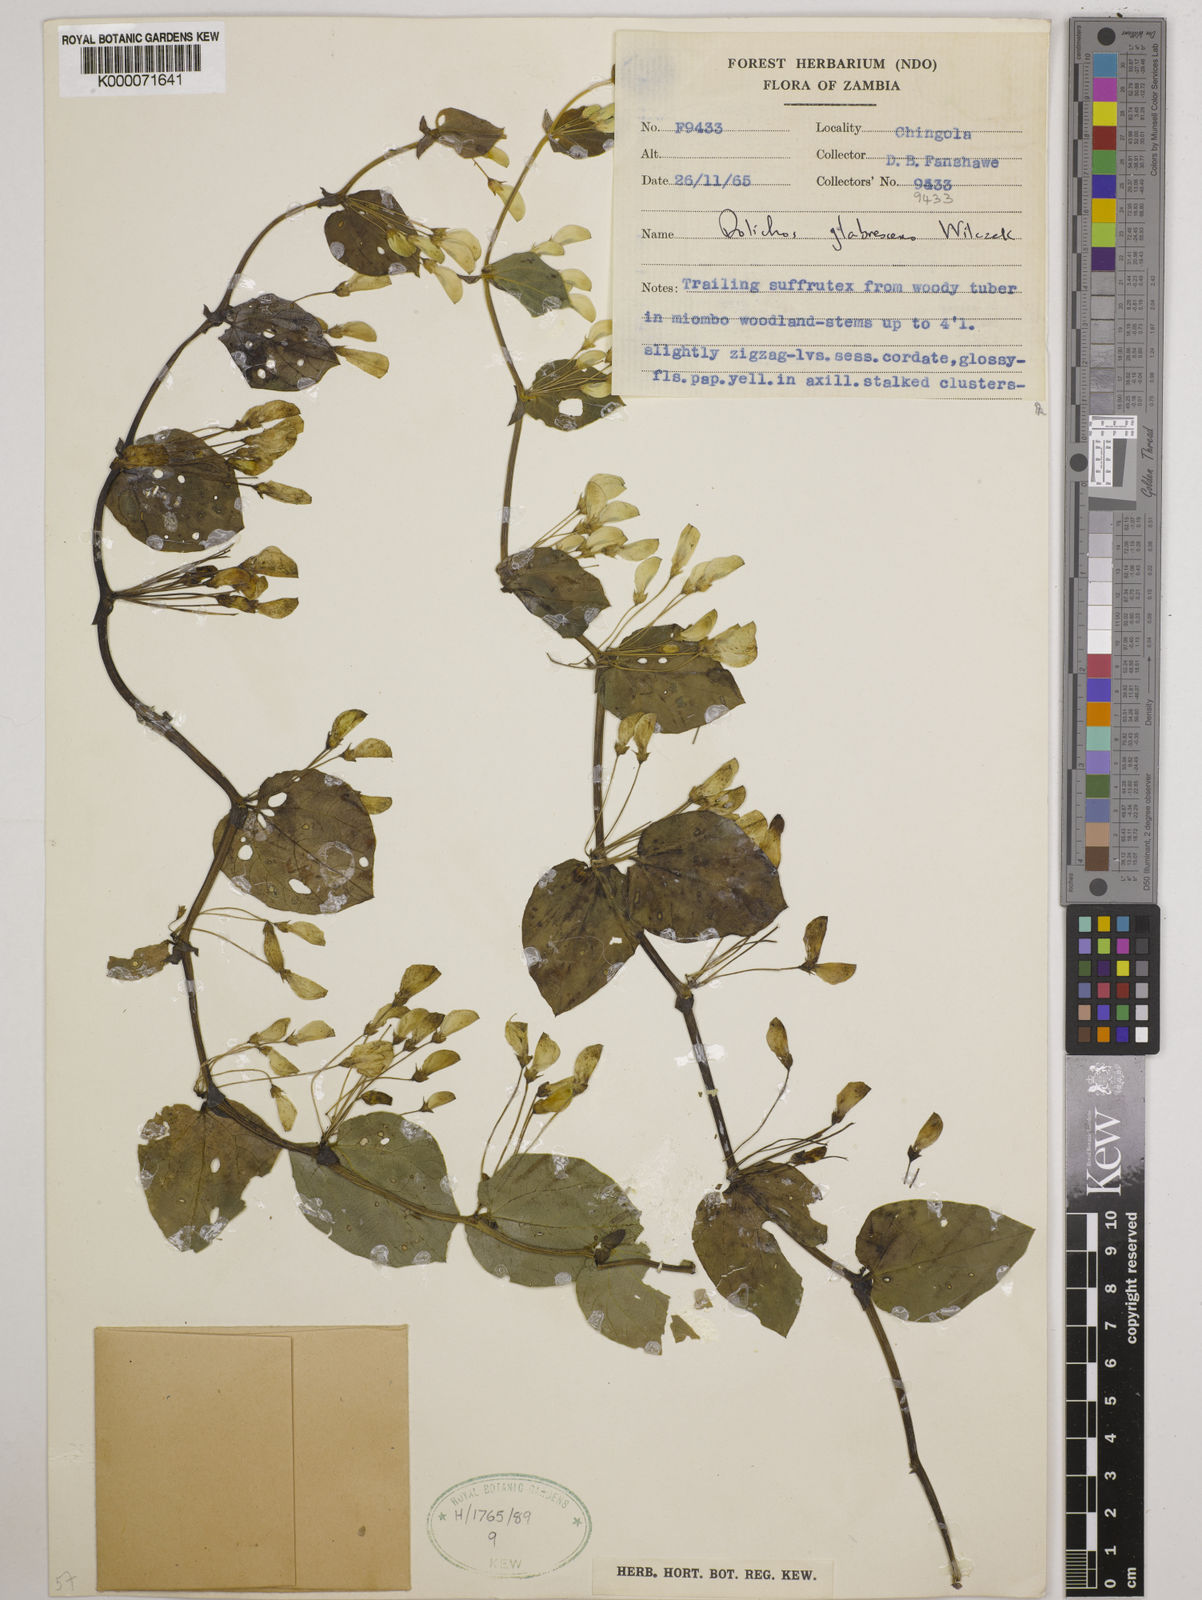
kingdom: Plantae
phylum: Tracheophyta
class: Magnoliopsida
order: Fabales
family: Fabaceae
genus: Dolichos
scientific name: Dolichos
